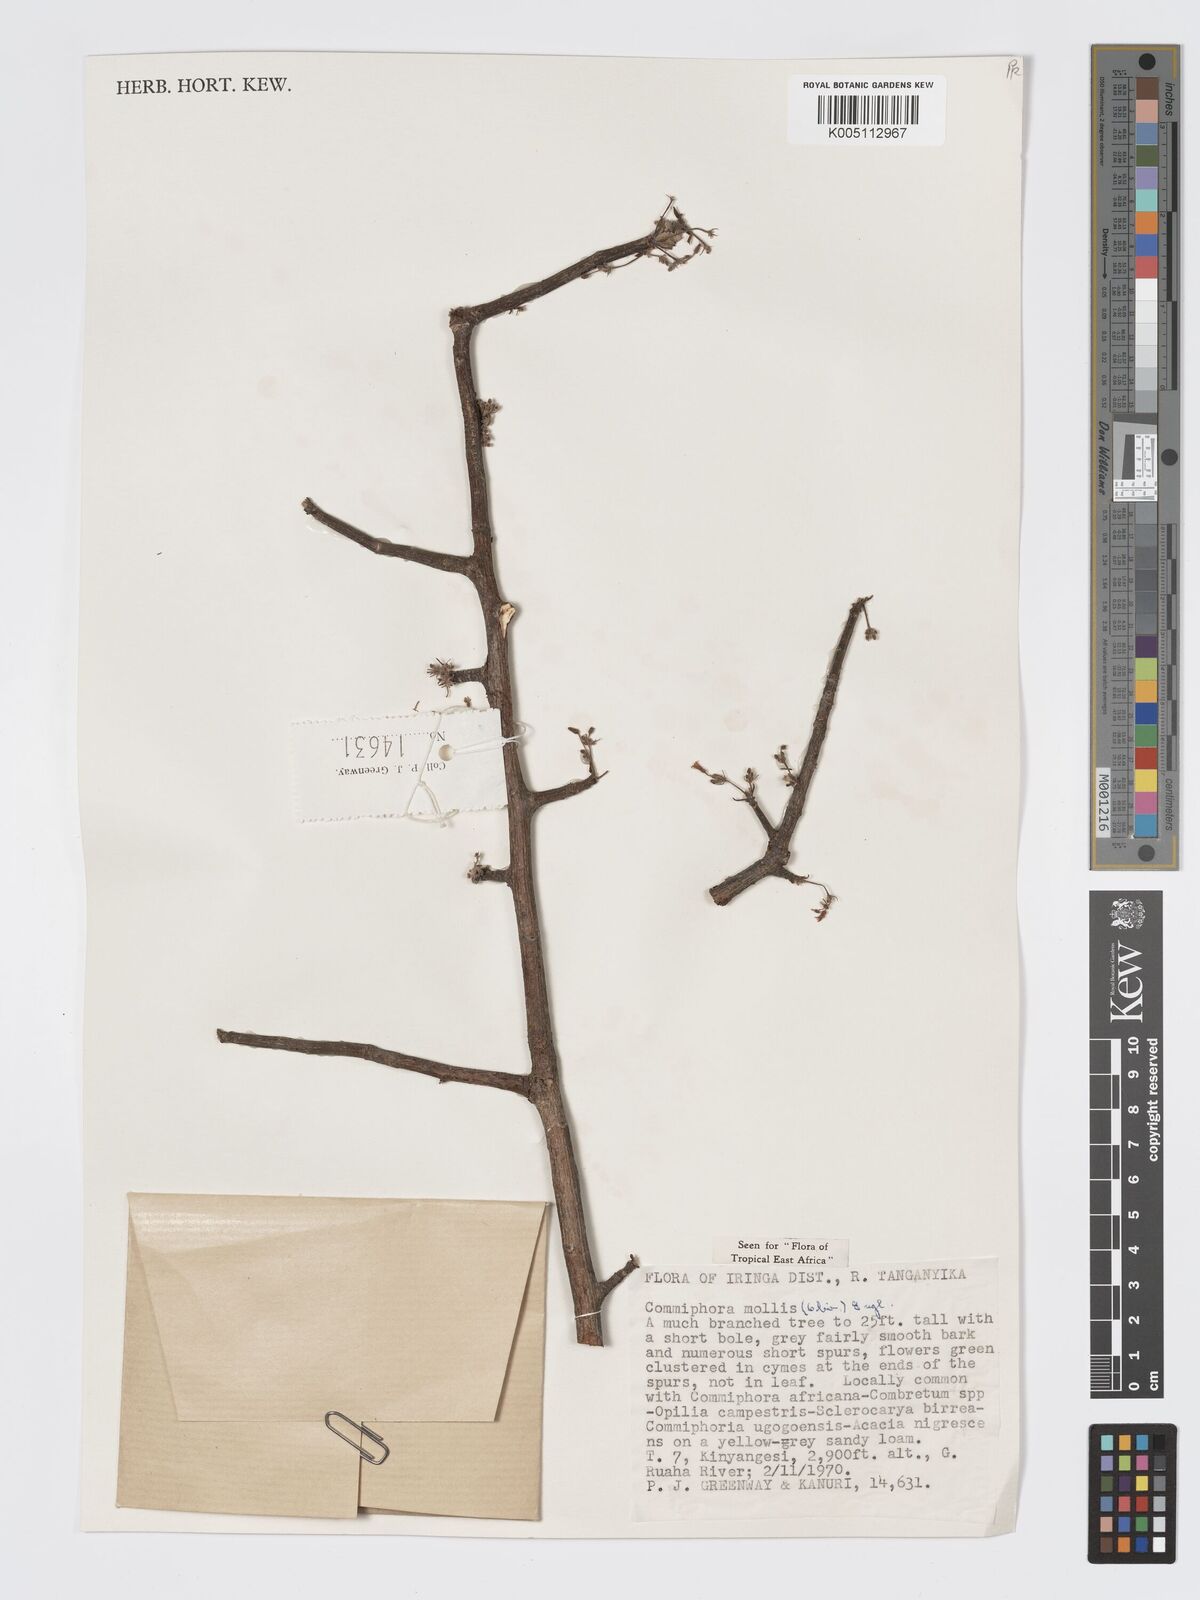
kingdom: Plantae
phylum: Tracheophyta
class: Magnoliopsida
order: Sapindales
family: Burseraceae
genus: Commiphora
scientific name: Commiphora
